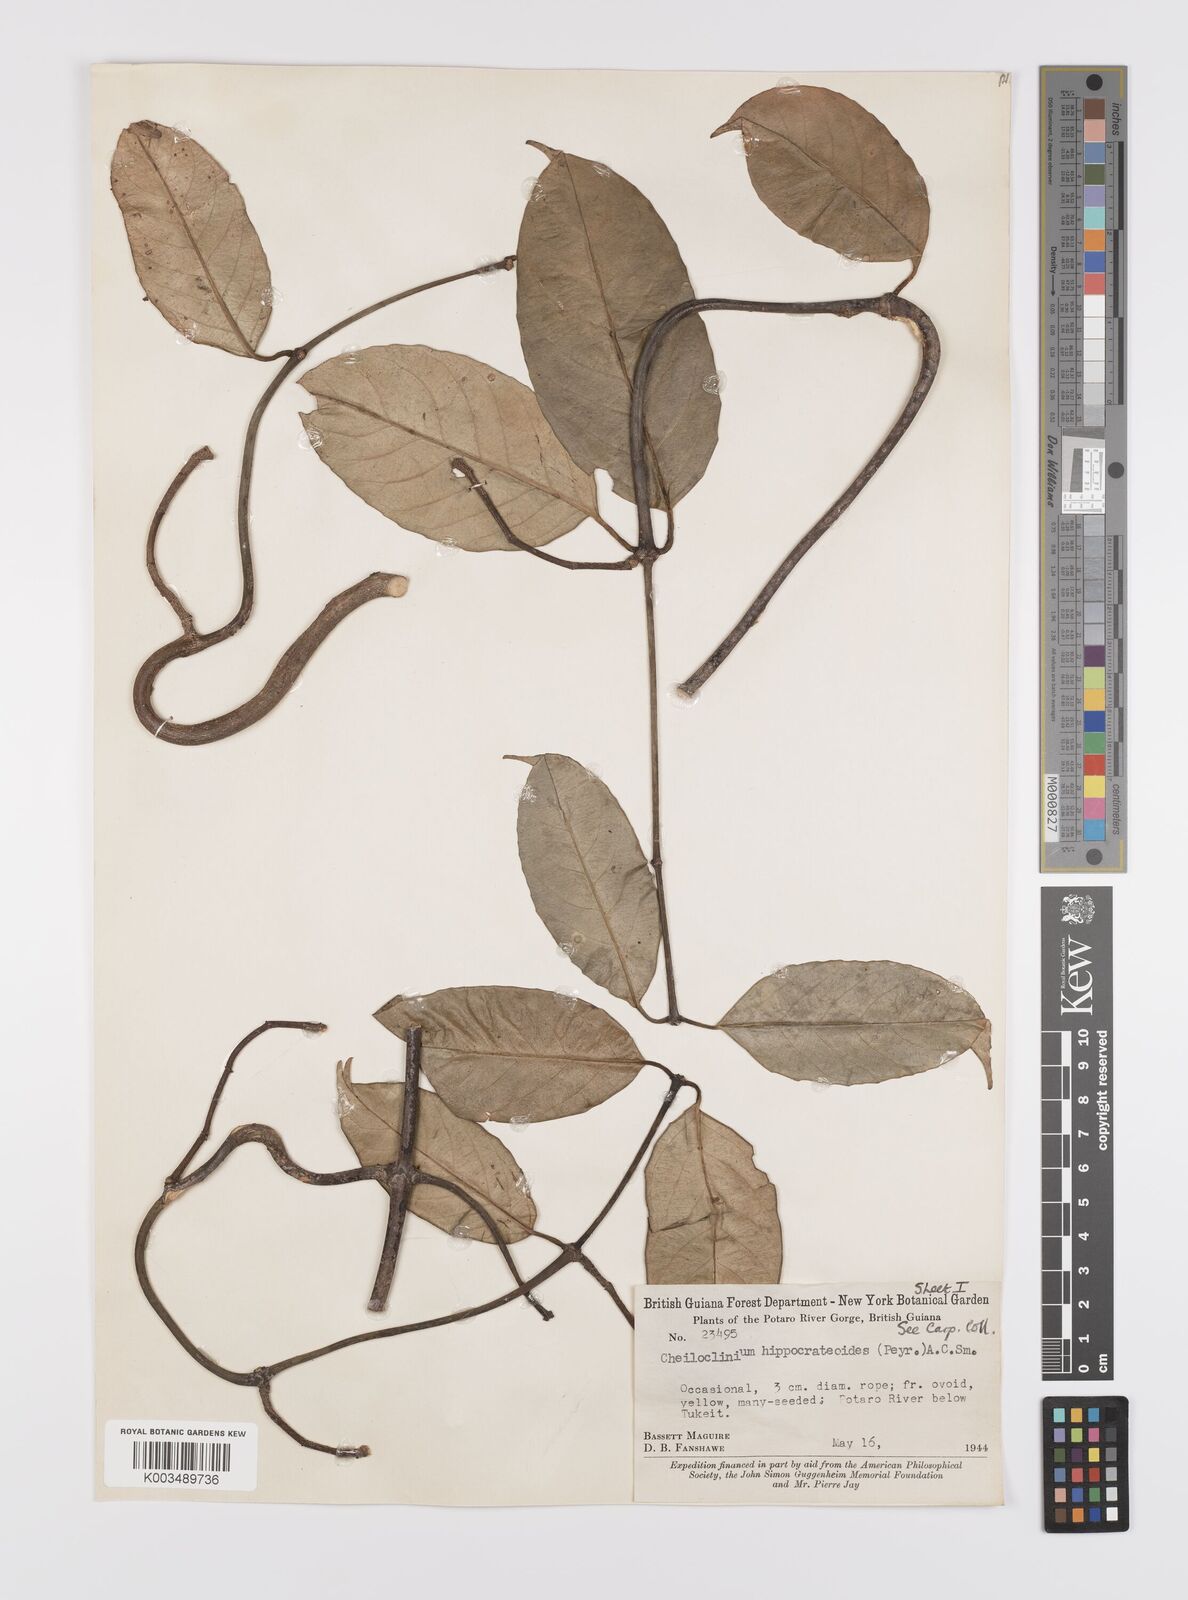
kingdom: Plantae
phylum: Tracheophyta
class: Magnoliopsida
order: Celastrales
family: Celastraceae
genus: Cheiloclinium
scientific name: Cheiloclinium hippocrateoides
